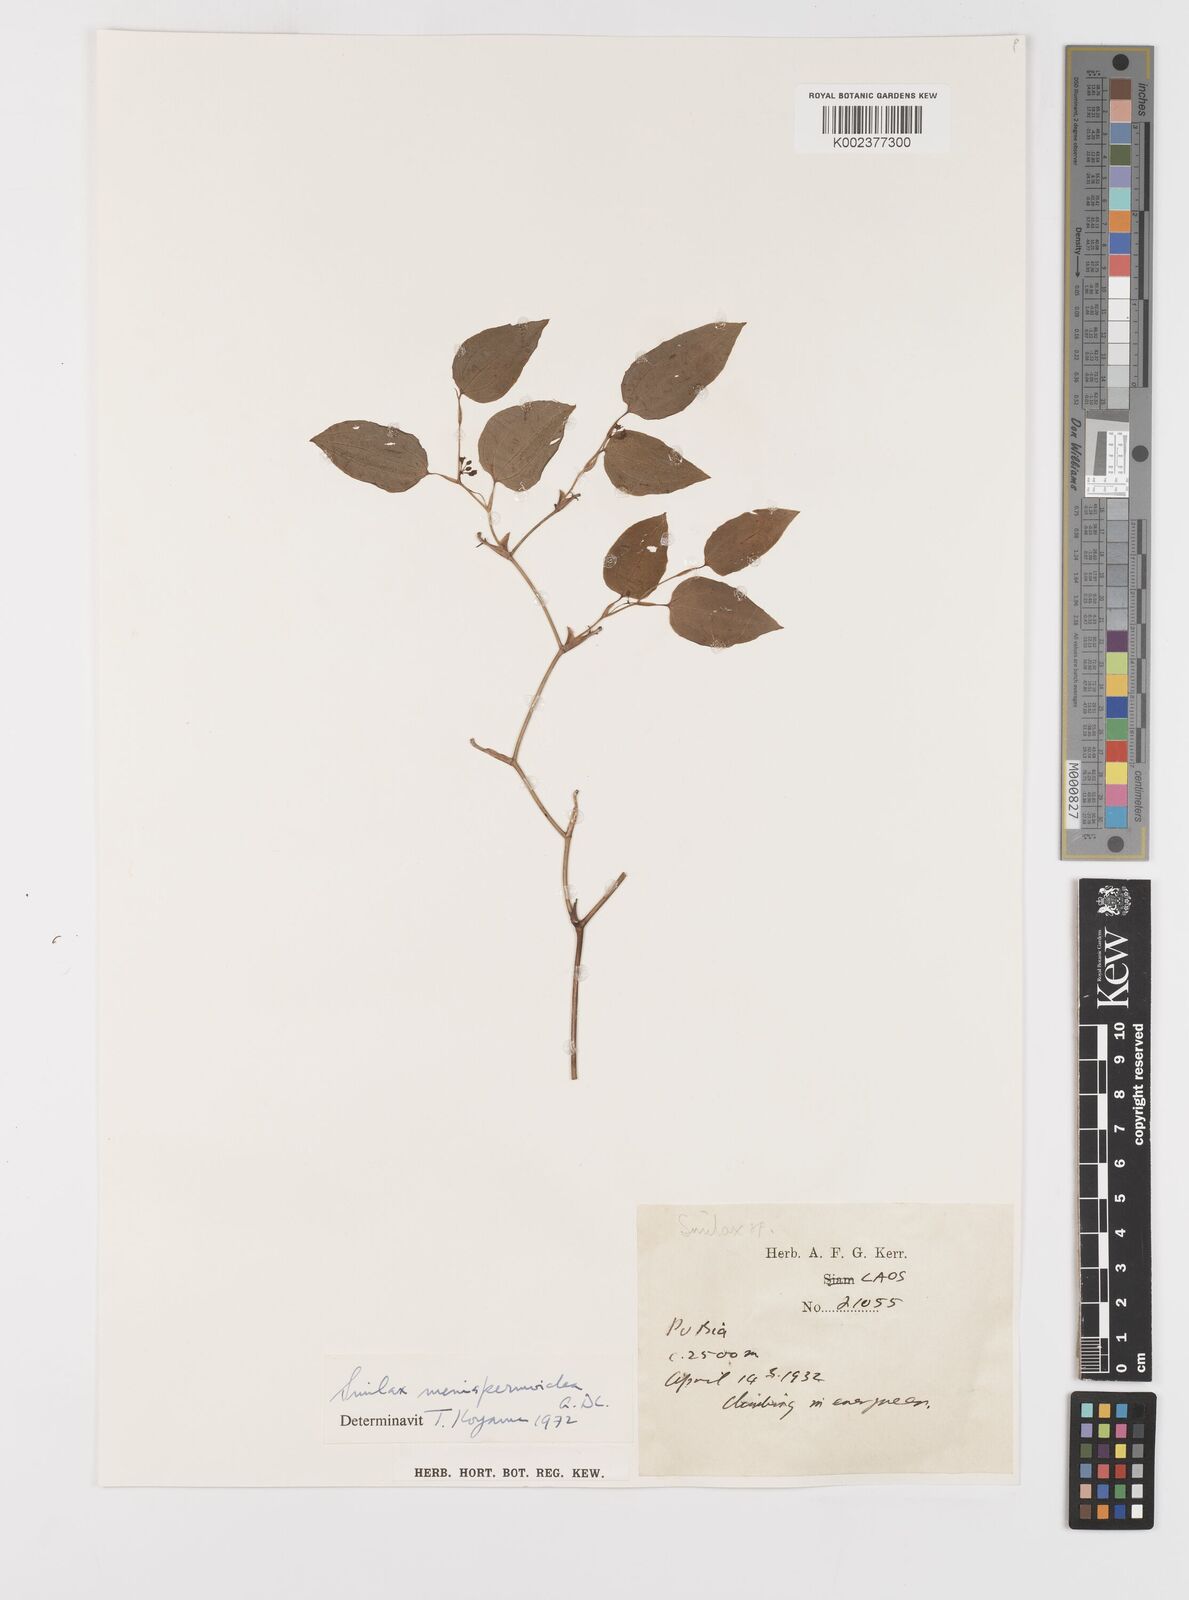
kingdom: Plantae
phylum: Tracheophyta
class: Liliopsida
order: Liliales
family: Smilacaceae
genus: Smilax
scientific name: Smilax menispermoidea
